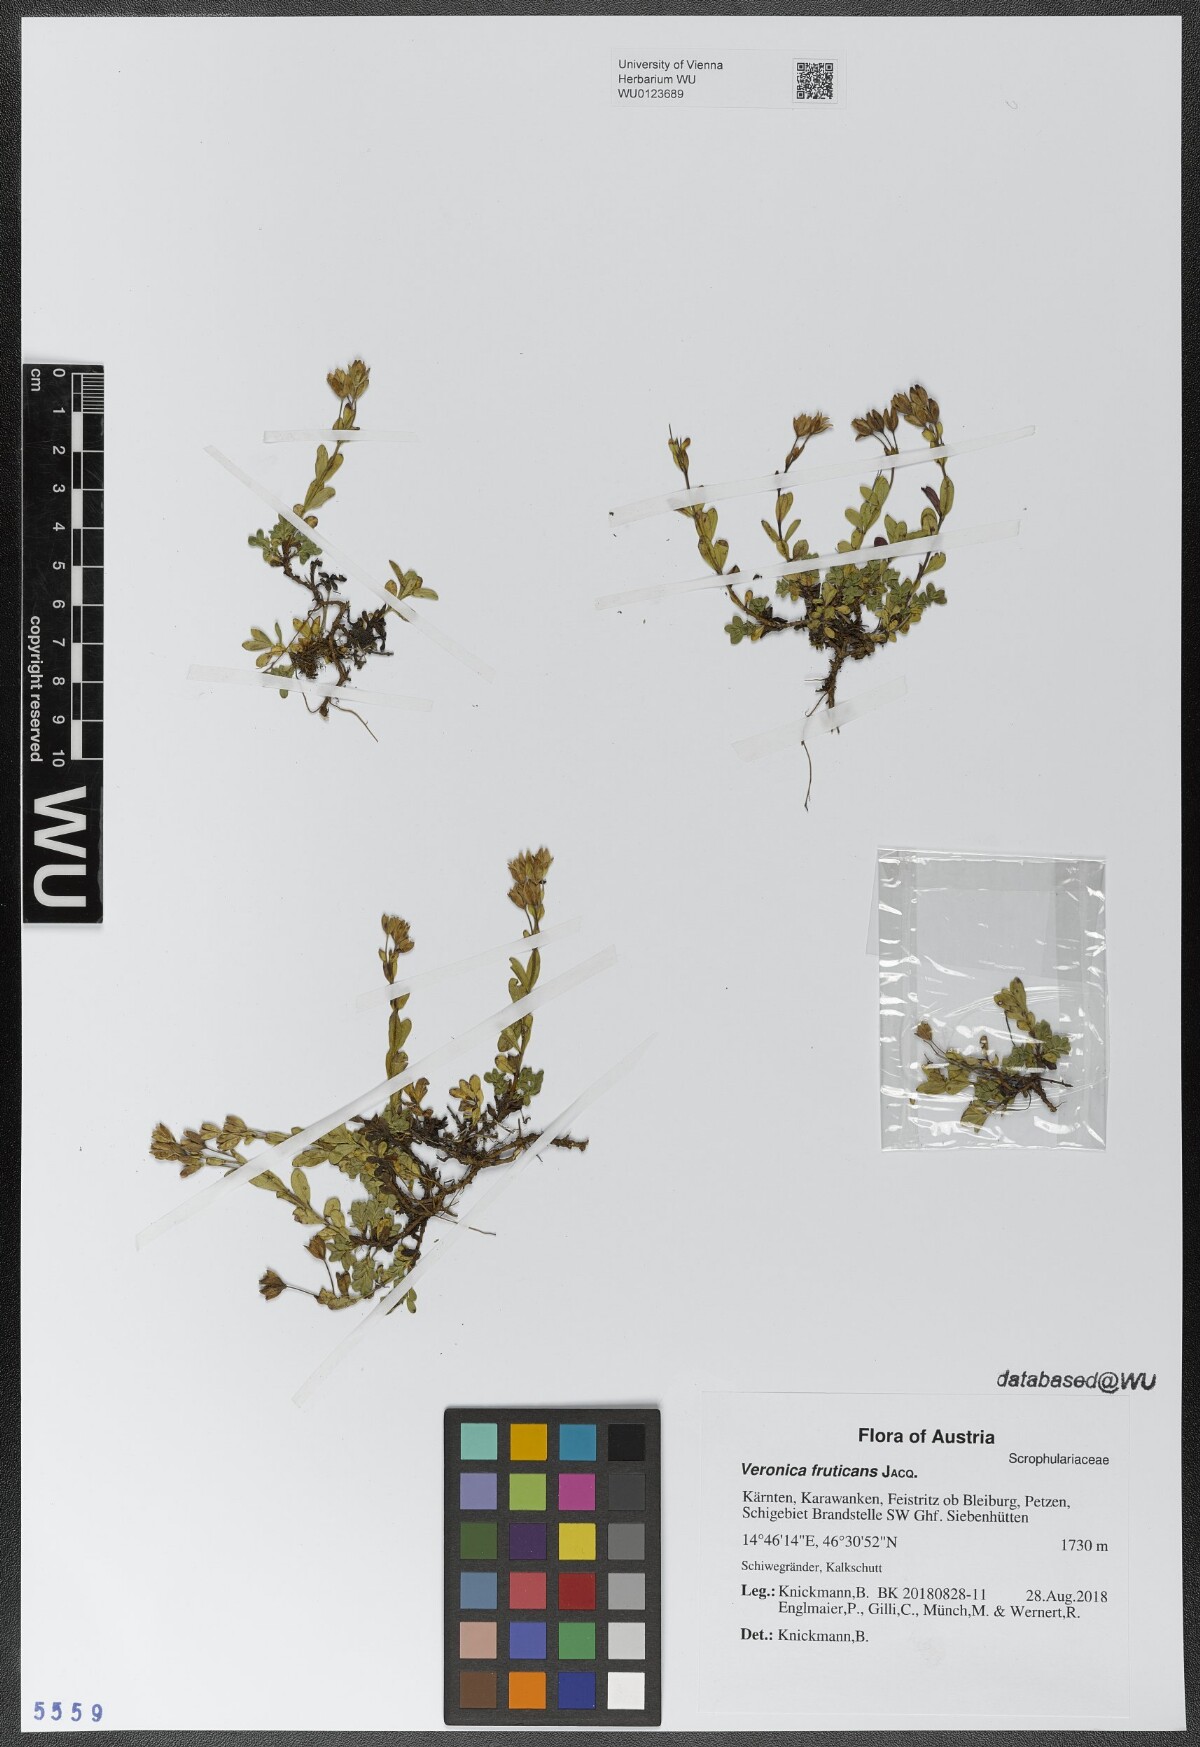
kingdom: Plantae
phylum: Tracheophyta
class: Magnoliopsida
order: Lamiales
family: Plantaginaceae
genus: Veronica
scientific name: Veronica fruticans
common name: Rock speedwell
